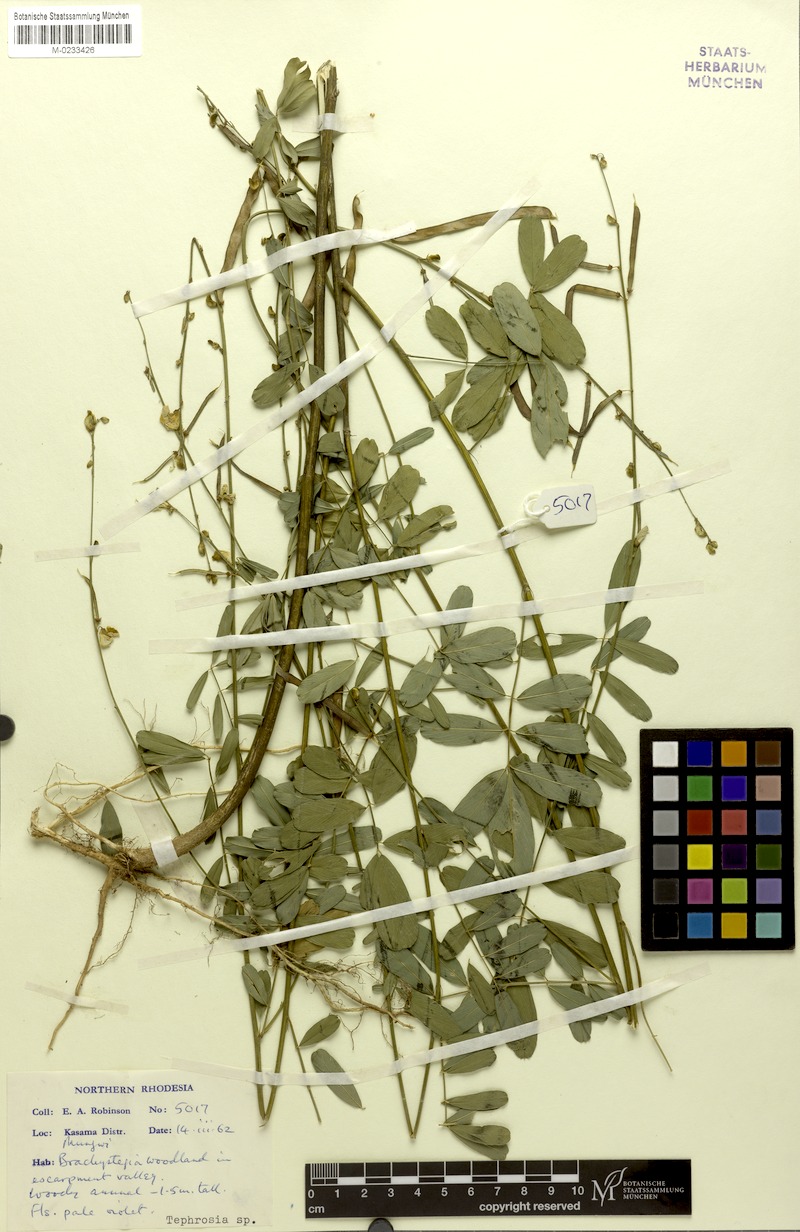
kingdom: Plantae
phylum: Tracheophyta
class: Magnoliopsida
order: Fabales
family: Fabaceae
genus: Tephrosia
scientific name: Tephrosia punctata
